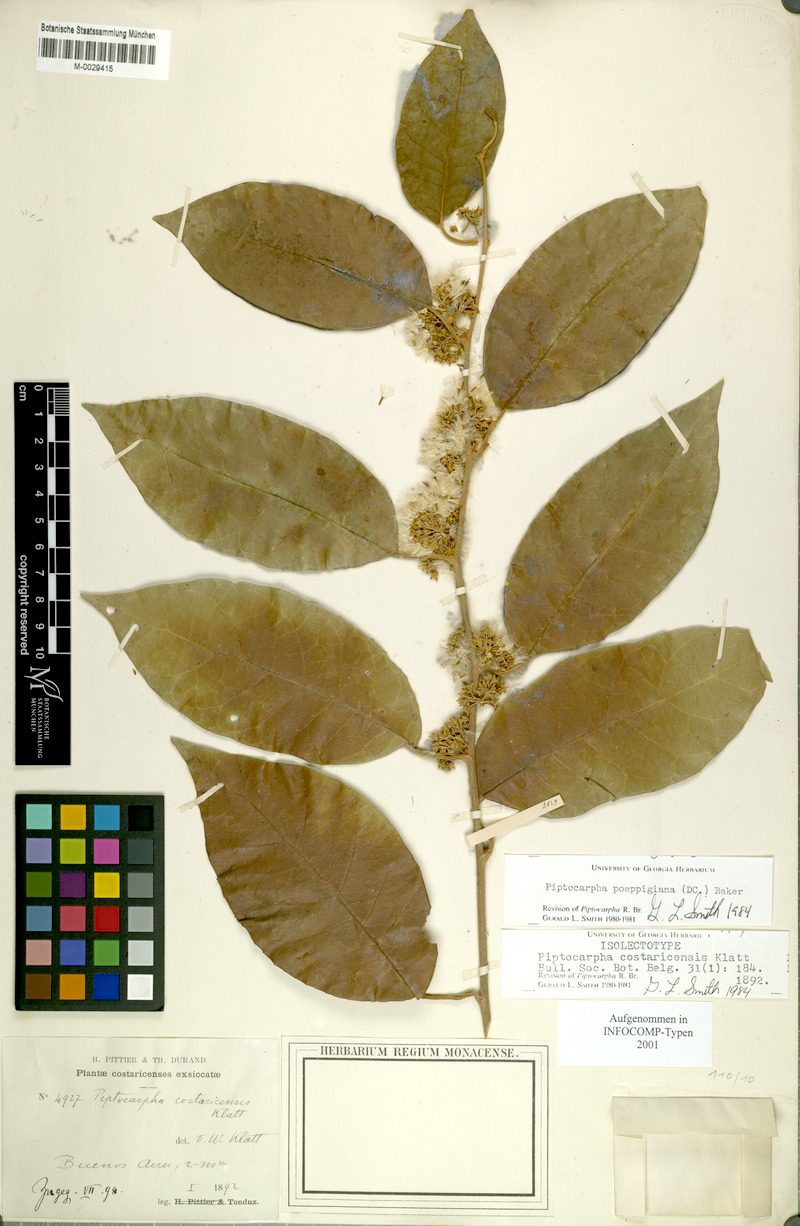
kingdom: Plantae
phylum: Tracheophyta
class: Magnoliopsida
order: Asterales
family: Asteraceae
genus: Piptocarpha
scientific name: Piptocarpha poeppigiana
